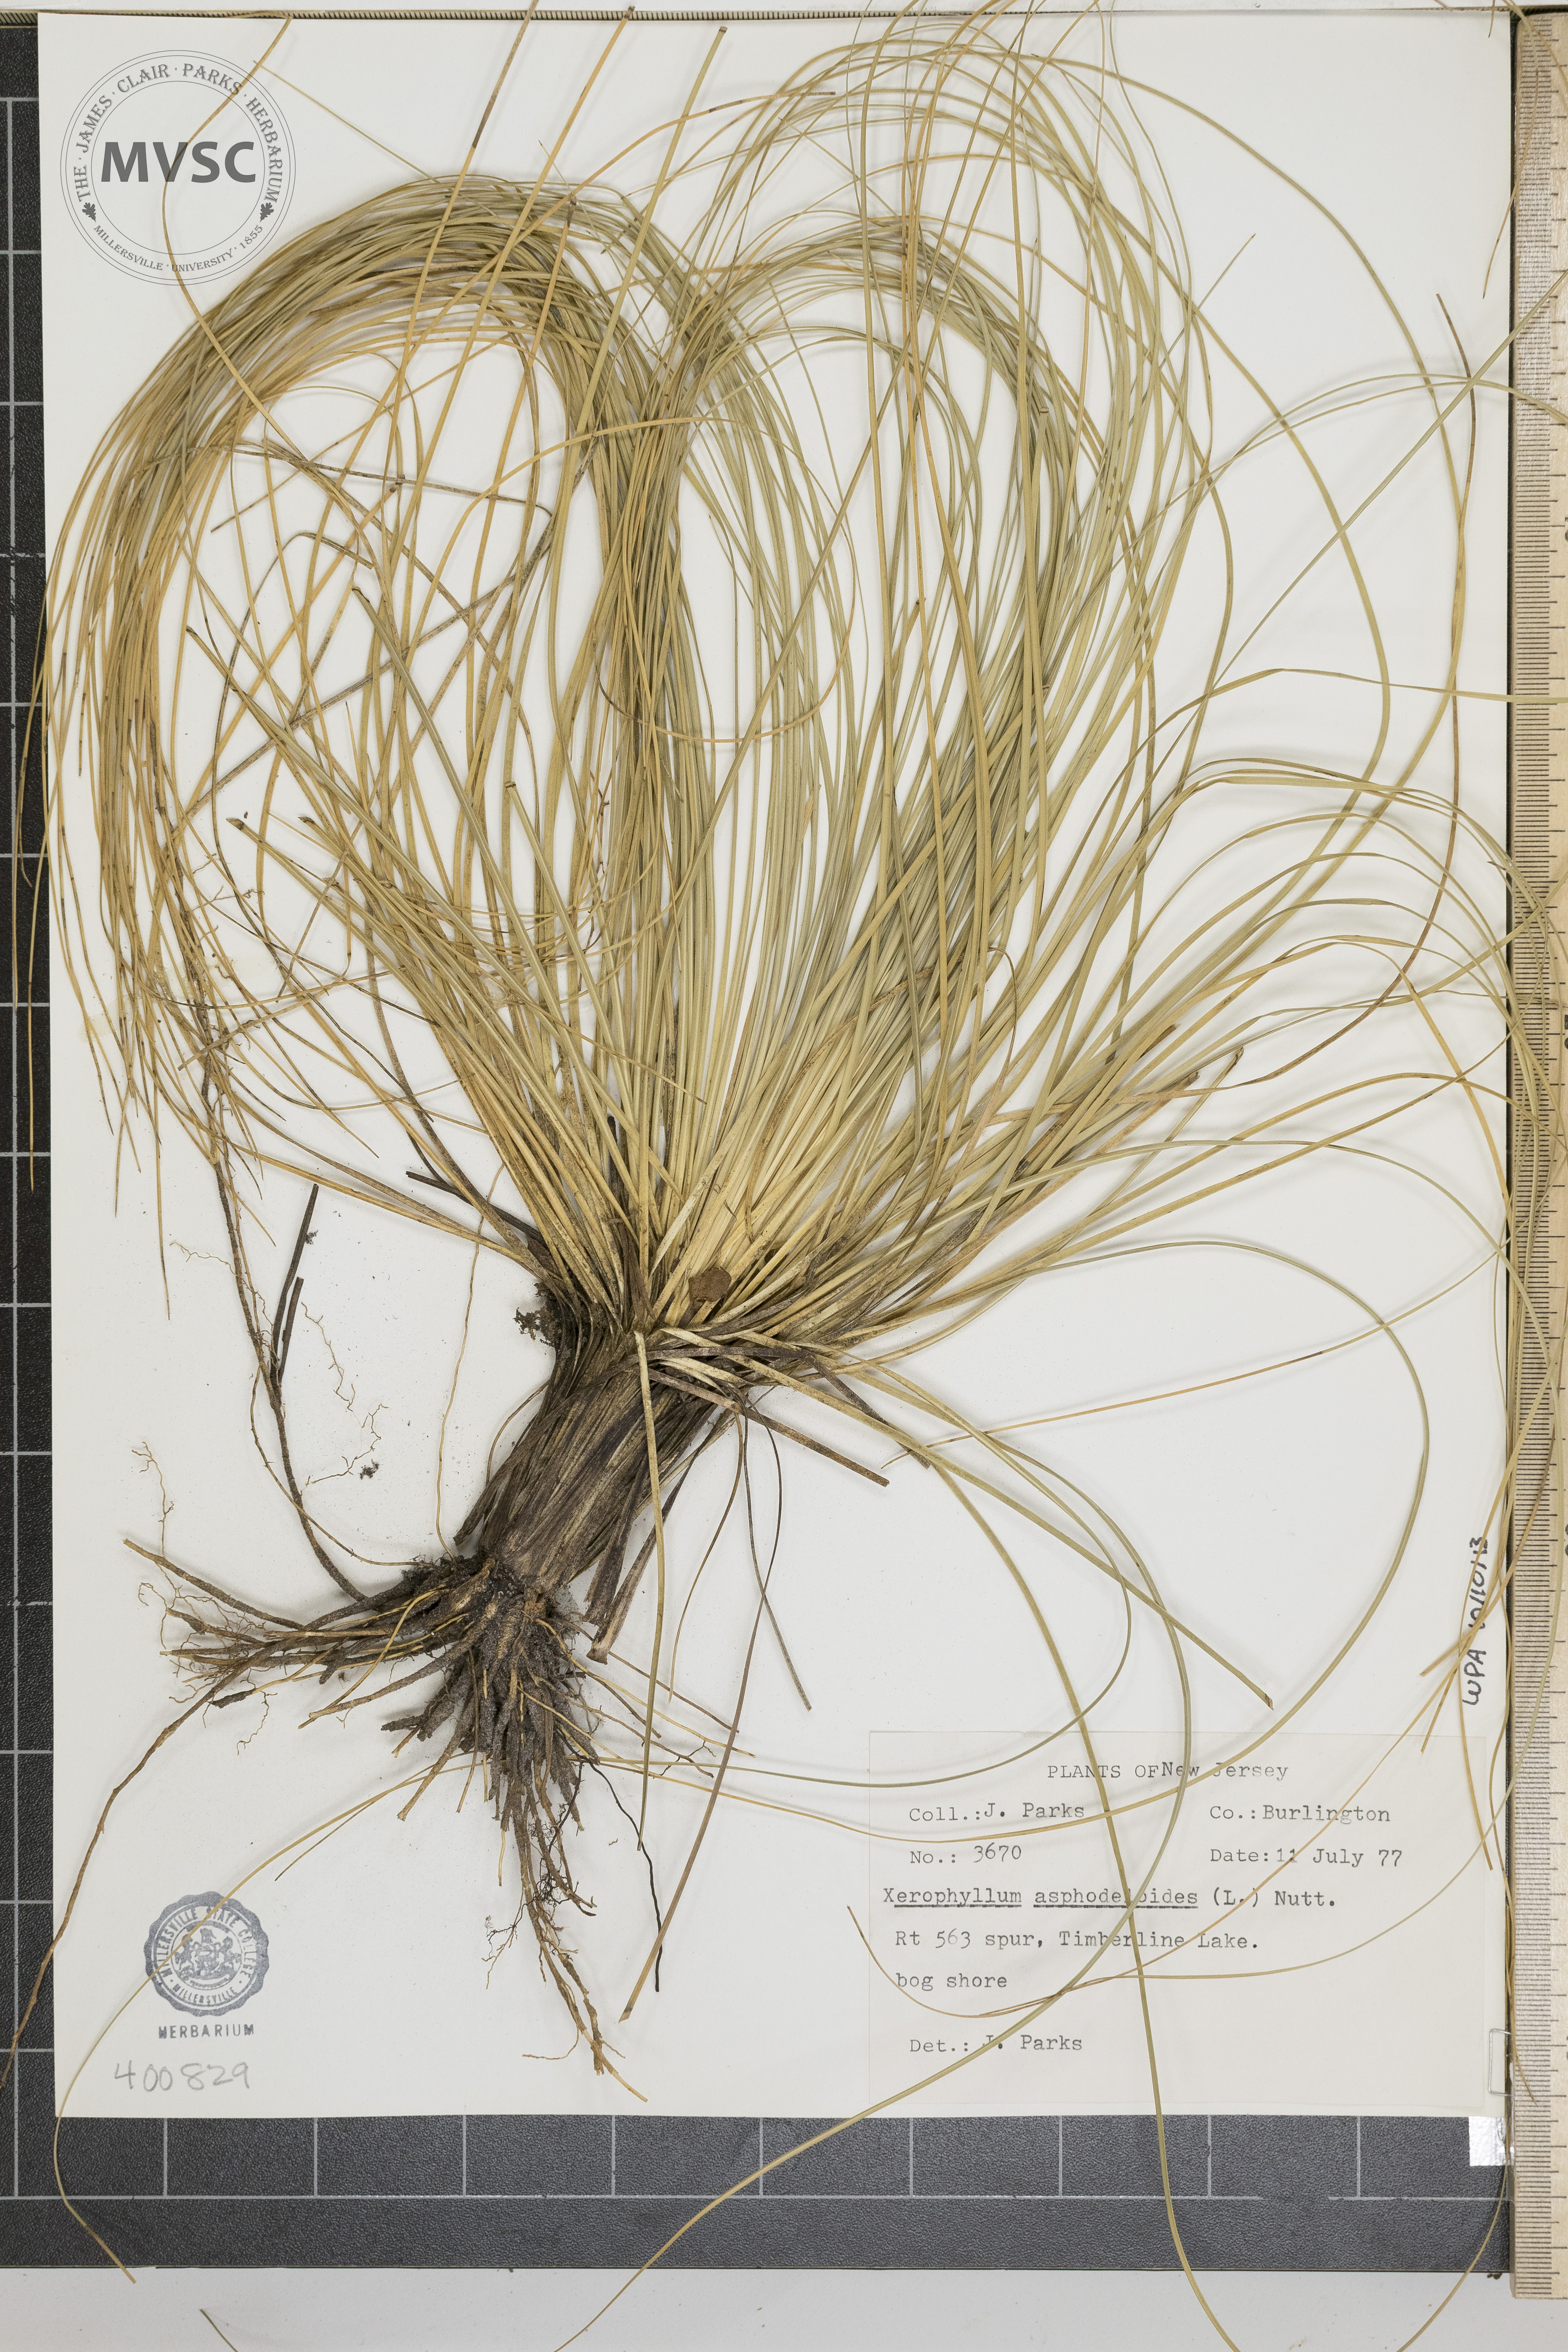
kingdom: Plantae
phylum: Tracheophyta
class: Liliopsida
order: Liliales
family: Melanthiaceae
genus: Xerophyllum
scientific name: Xerophyllum asphodeloides
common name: Mountain-asphodel
